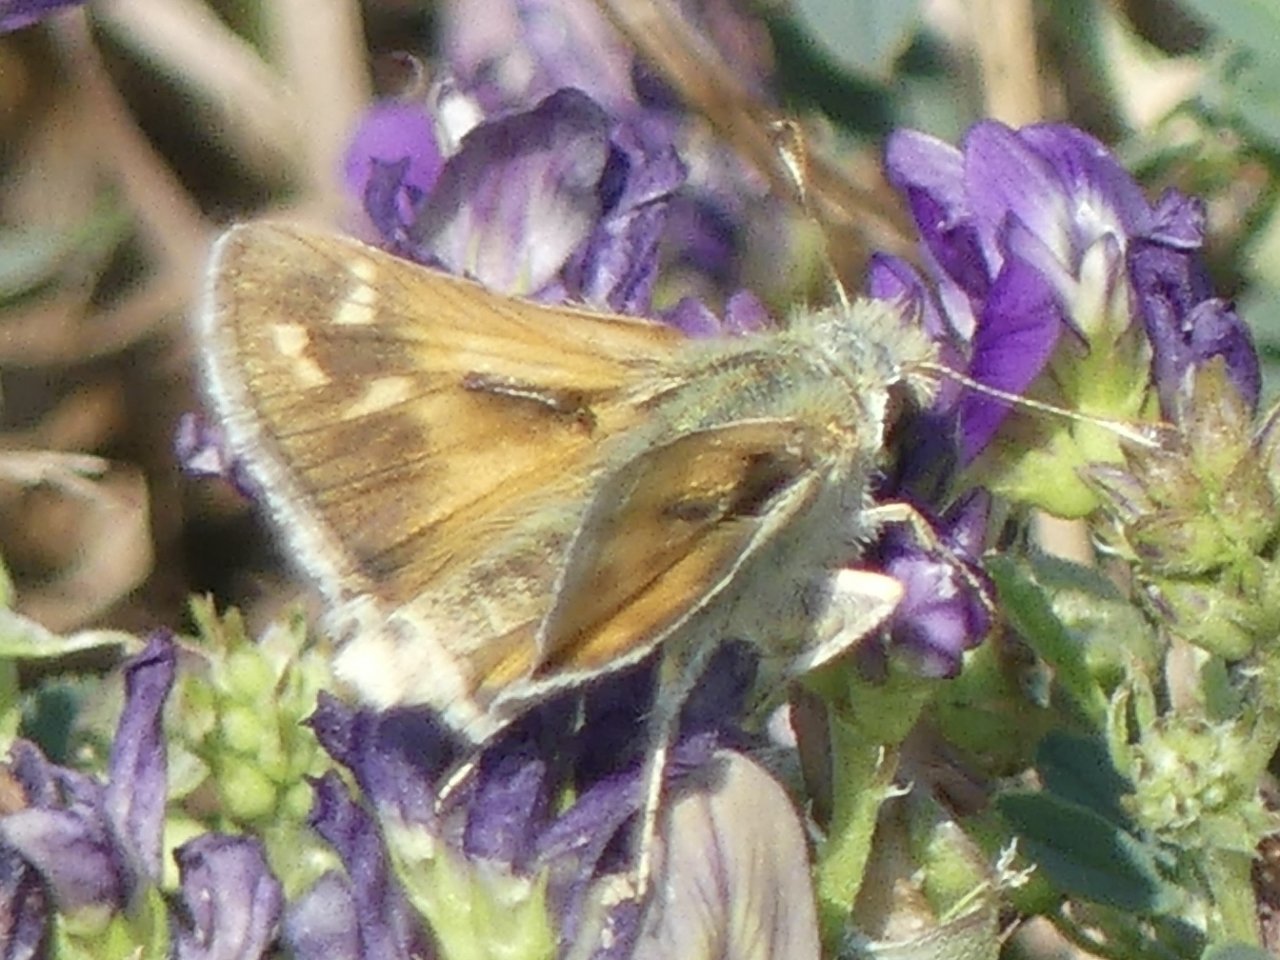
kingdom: Animalia
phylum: Arthropoda
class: Insecta
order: Lepidoptera
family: Hesperiidae
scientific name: Hesperiidae
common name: Skippers
